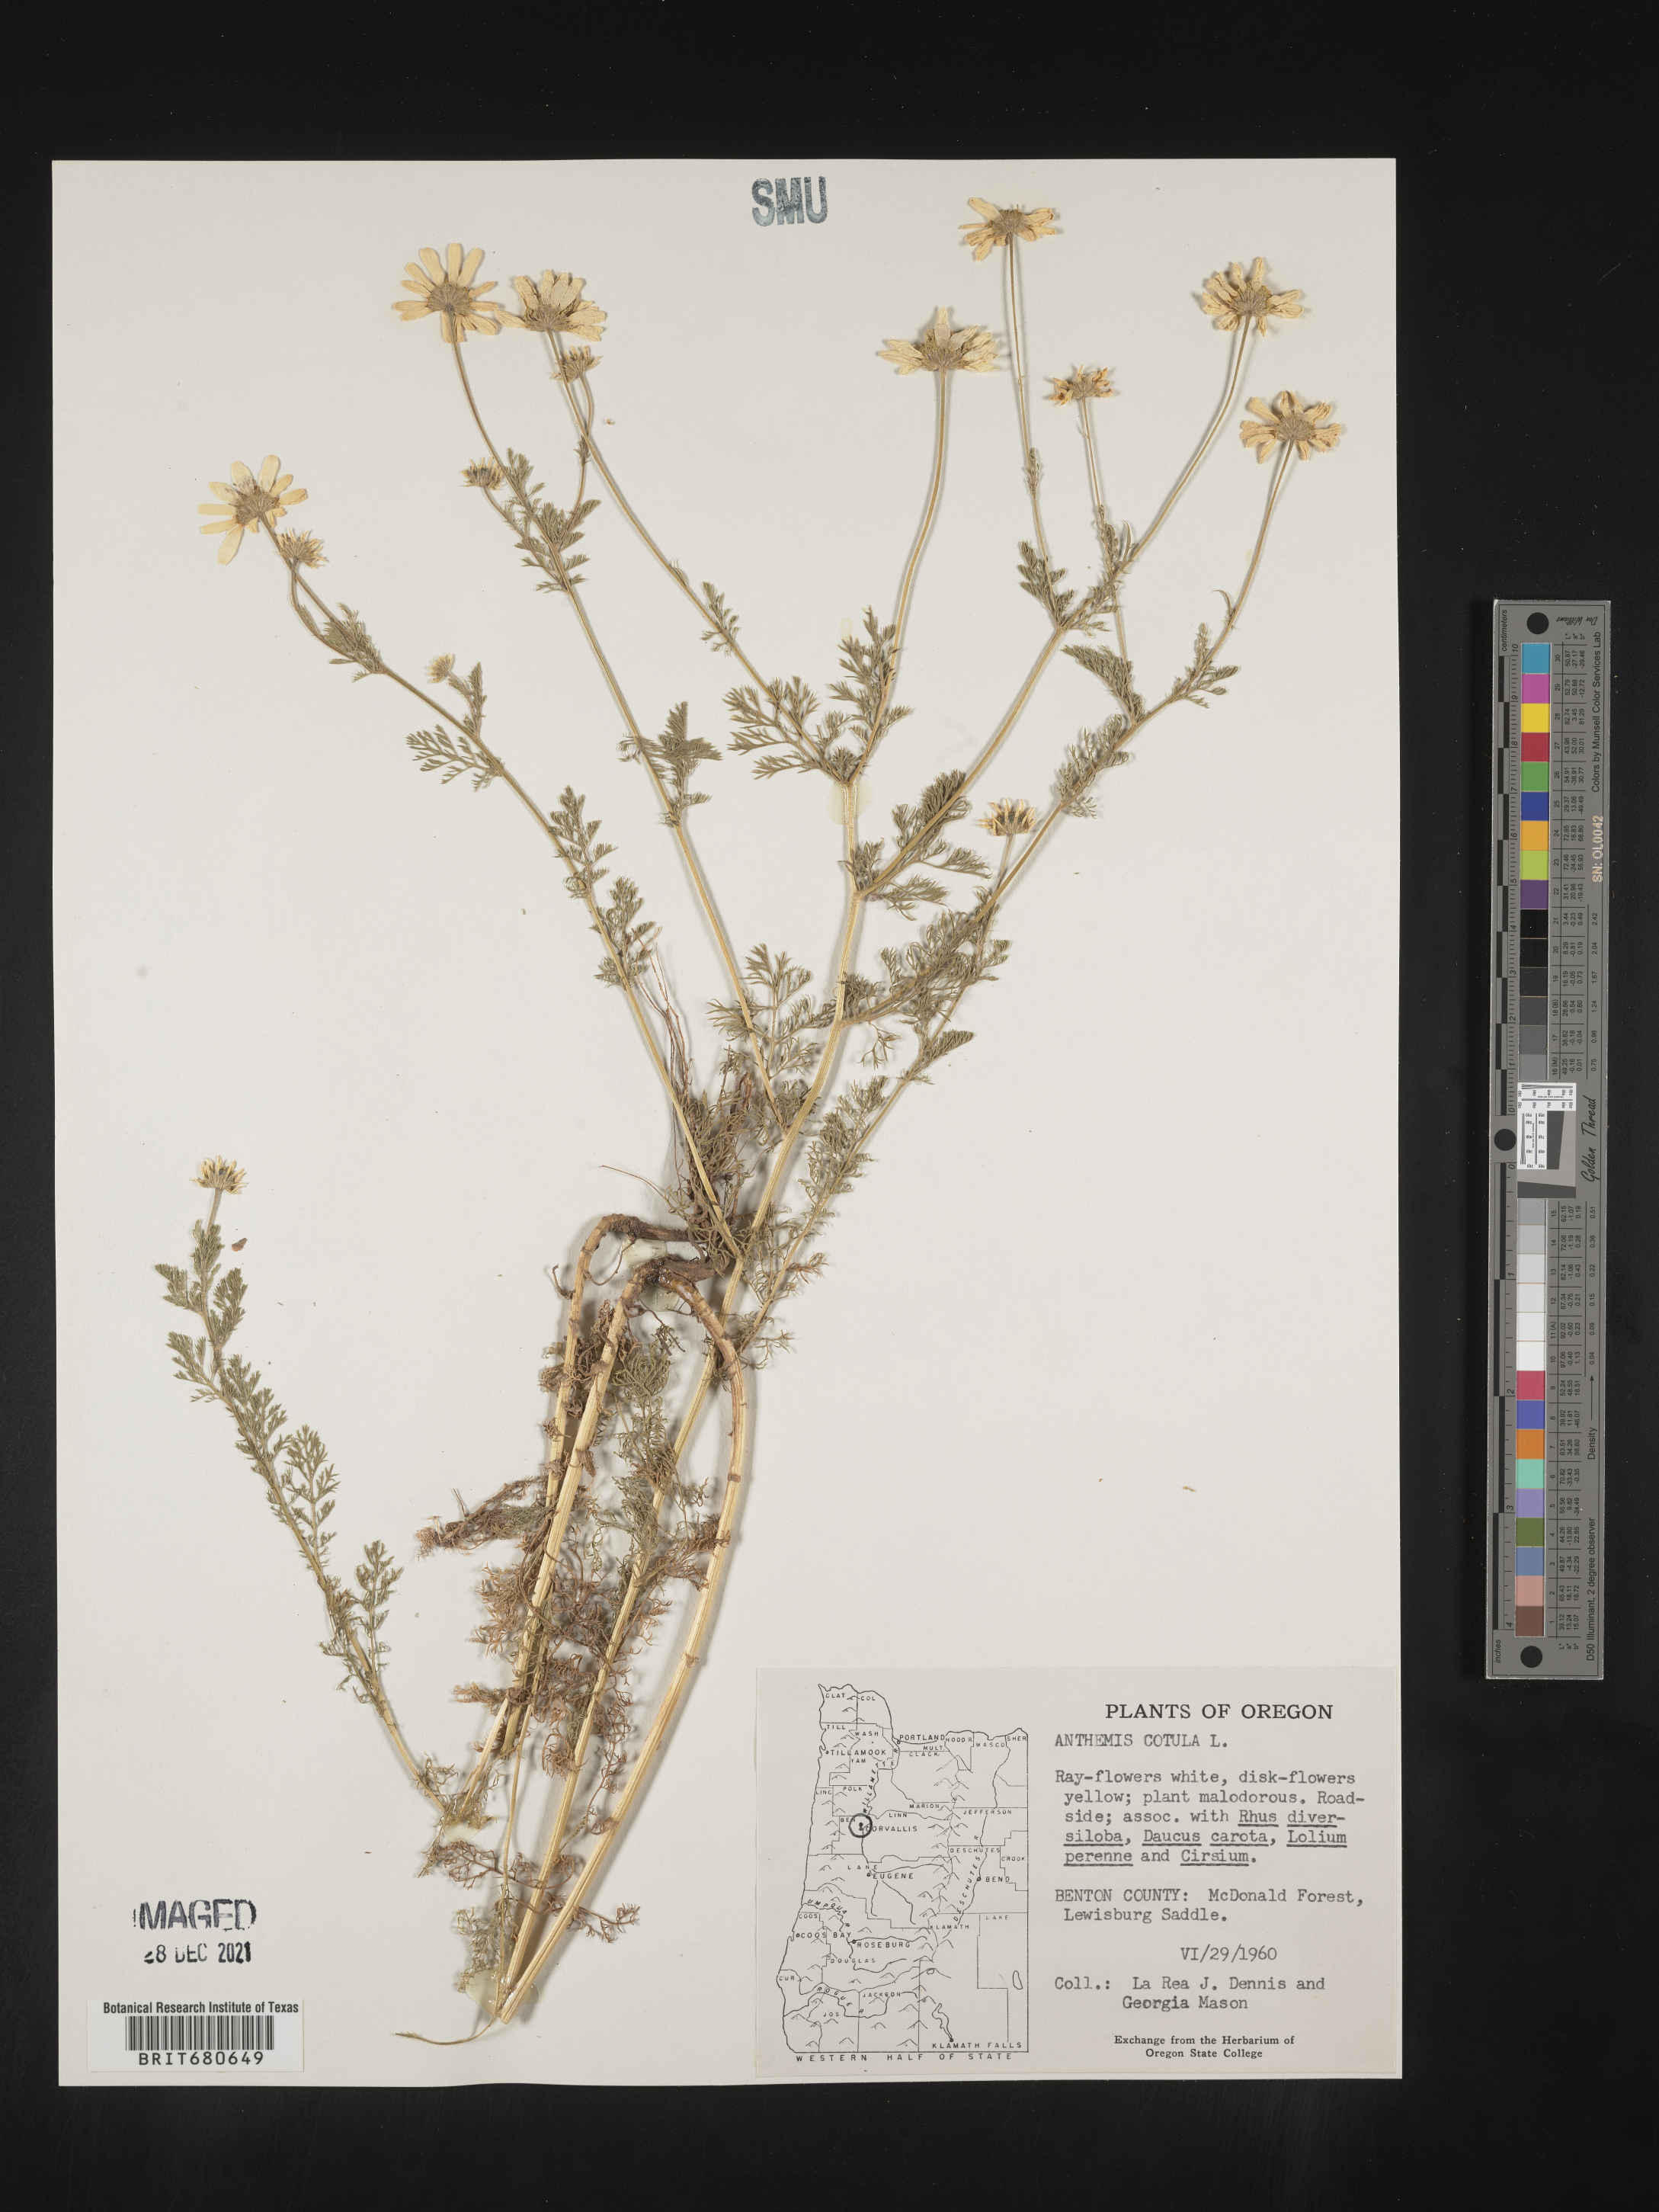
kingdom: Plantae
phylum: Tracheophyta
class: Magnoliopsida
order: Asterales
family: Asteraceae
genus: Anthemis
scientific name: Anthemis cotula
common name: Stinking chamomile
